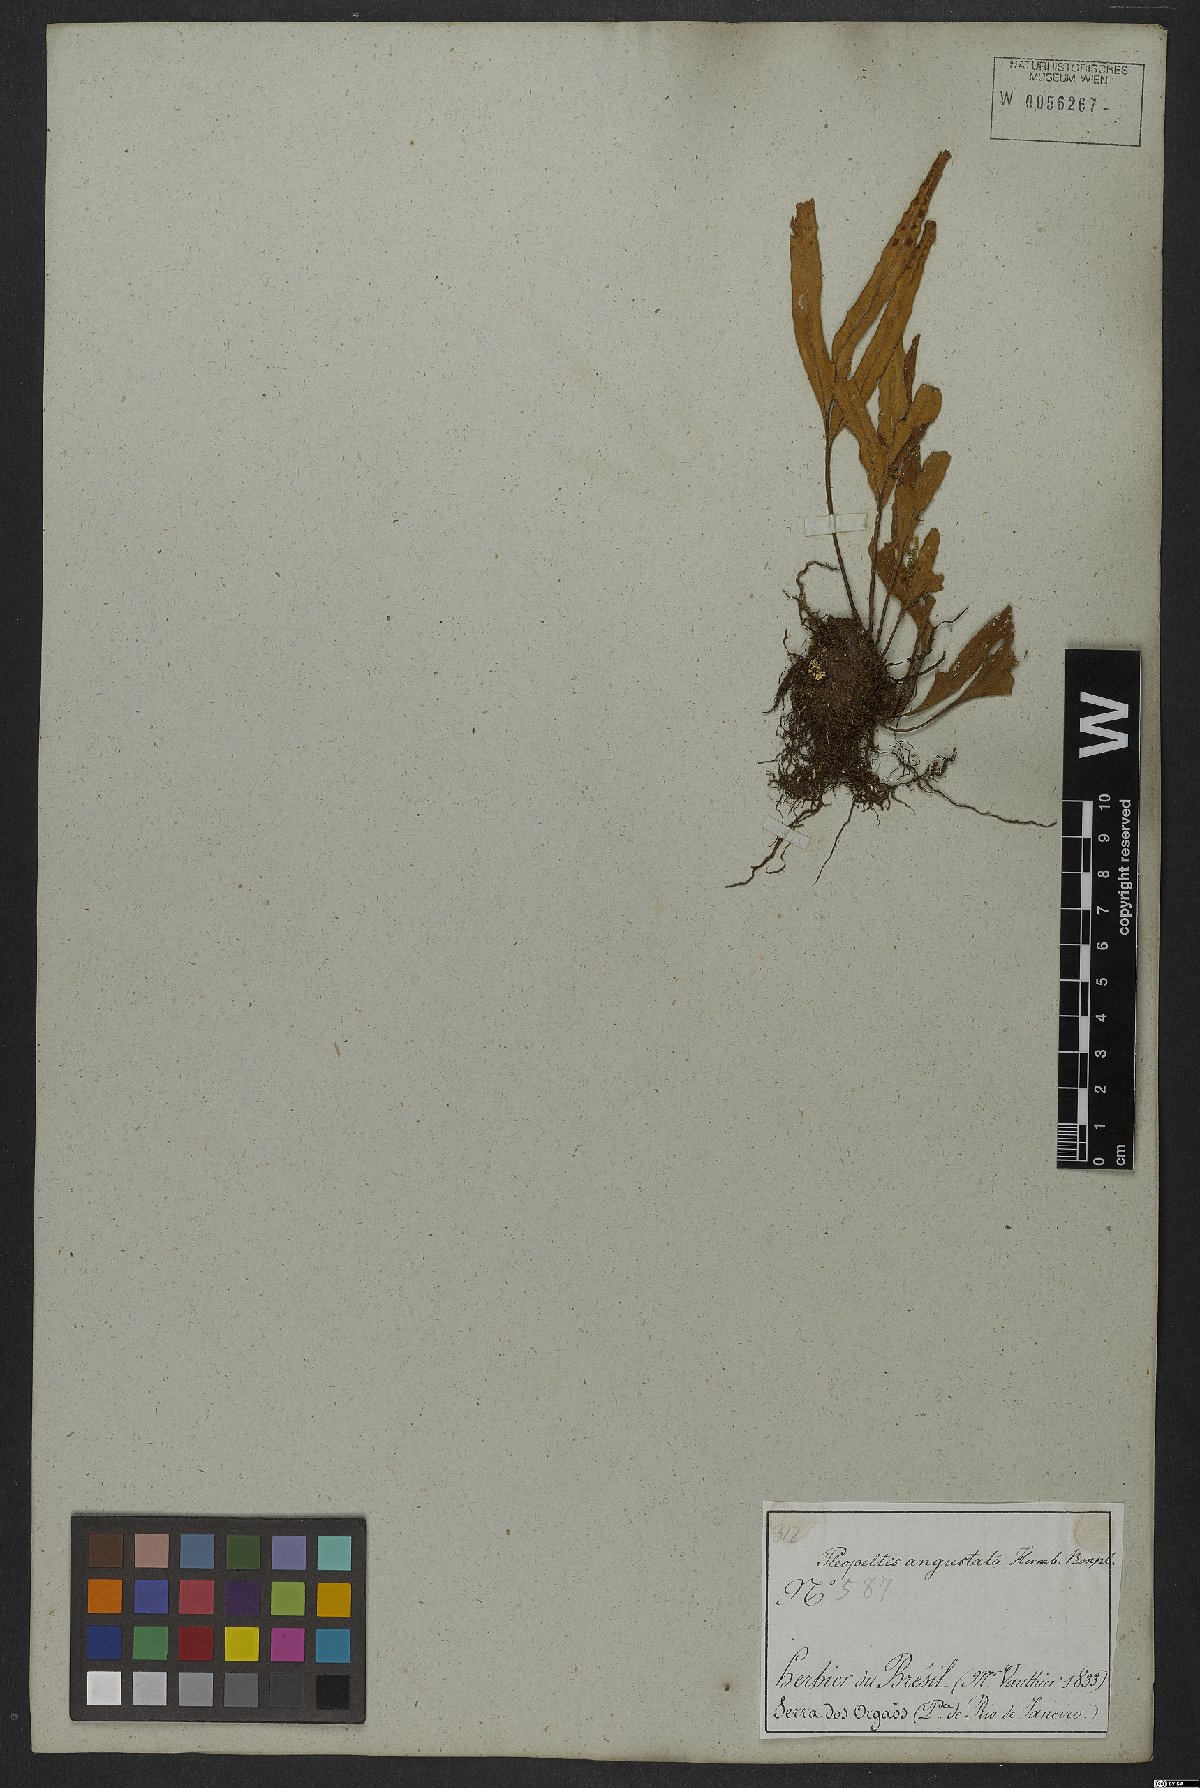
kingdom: Plantae
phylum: Tracheophyta
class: Polypodiopsida
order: Polypodiales
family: Polypodiaceae
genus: Pleopeltis
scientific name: Pleopeltis angusta
